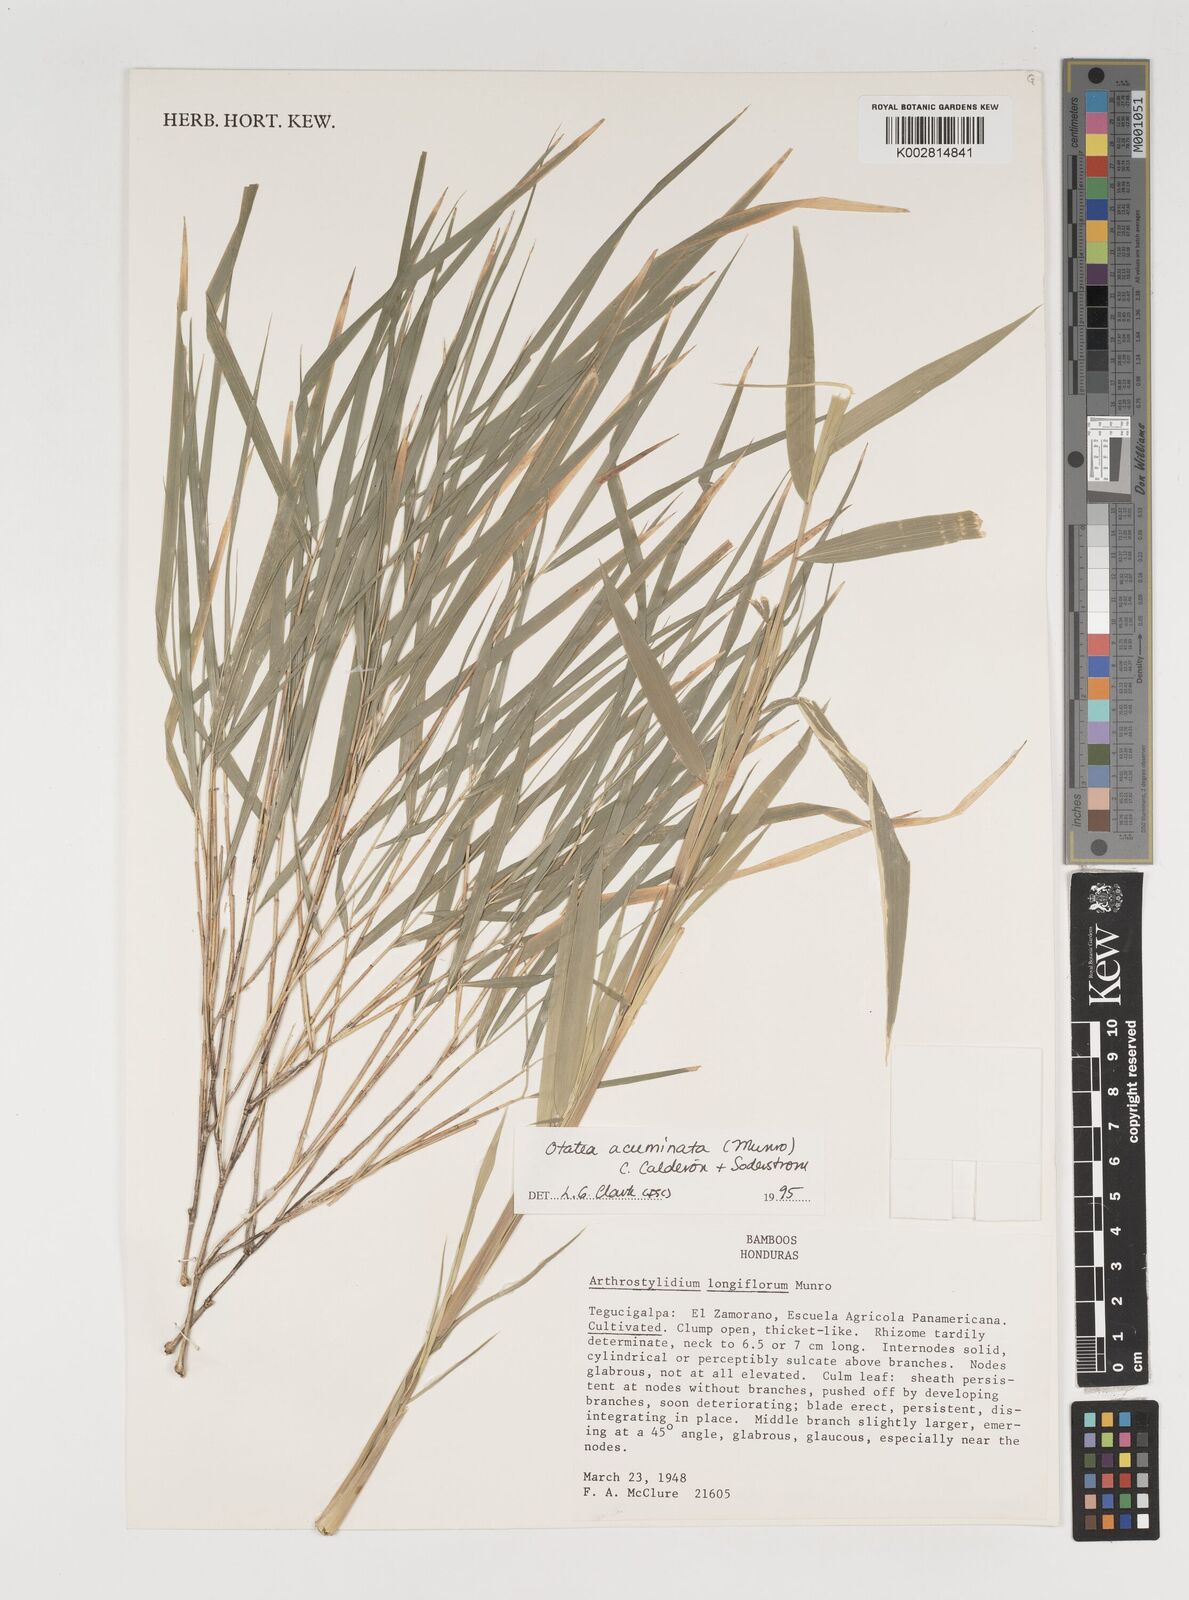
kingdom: Plantae
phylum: Tracheophyta
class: Liliopsida
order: Poales
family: Poaceae
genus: Olmeca
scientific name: Olmeca
